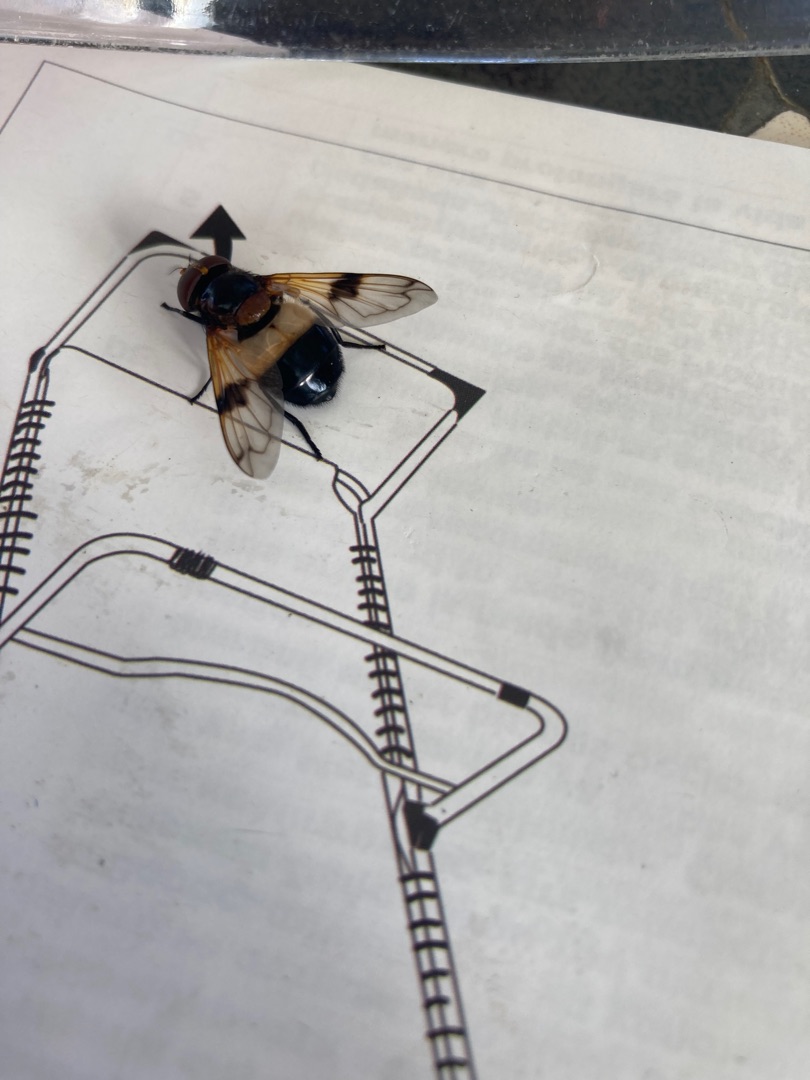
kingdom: Animalia
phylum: Arthropoda
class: Insecta
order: Diptera
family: Syrphidae
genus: Volucella
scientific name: Volucella pellucens
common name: Hvidbåndet humlesvirreflue
